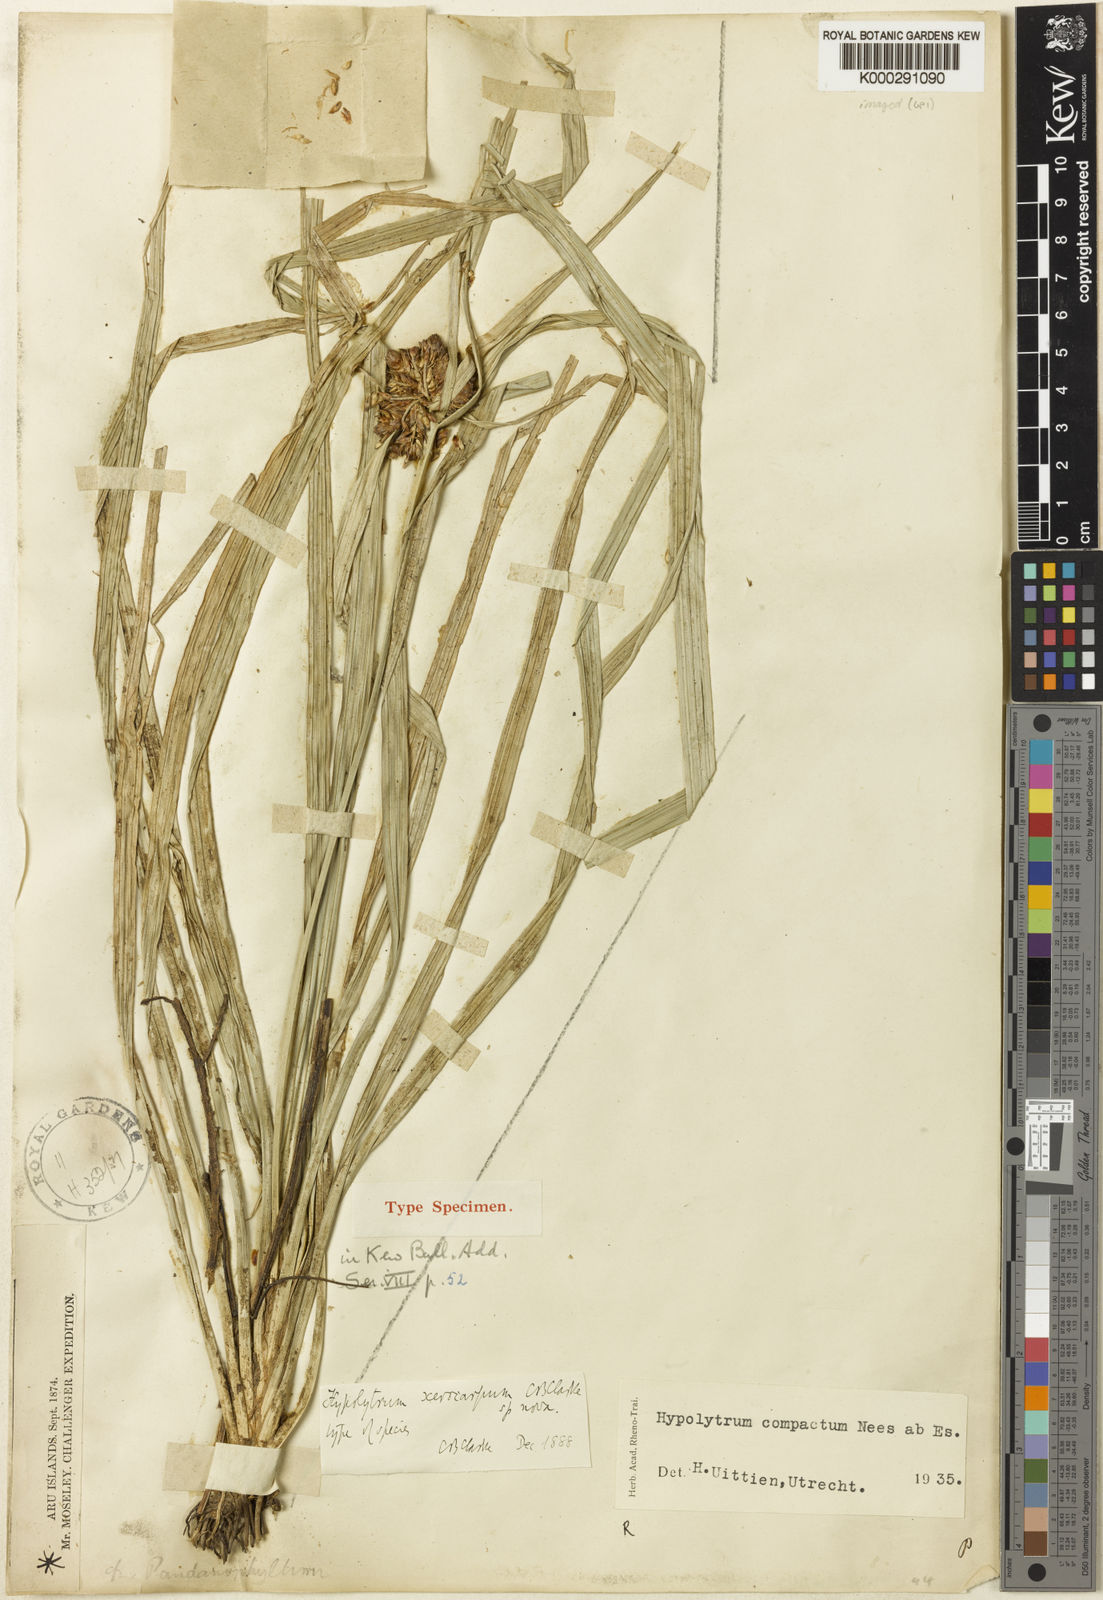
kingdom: Plantae
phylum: Tracheophyta
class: Liliopsida
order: Poales
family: Cyperaceae
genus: Hypolytrum
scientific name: Hypolytrum
